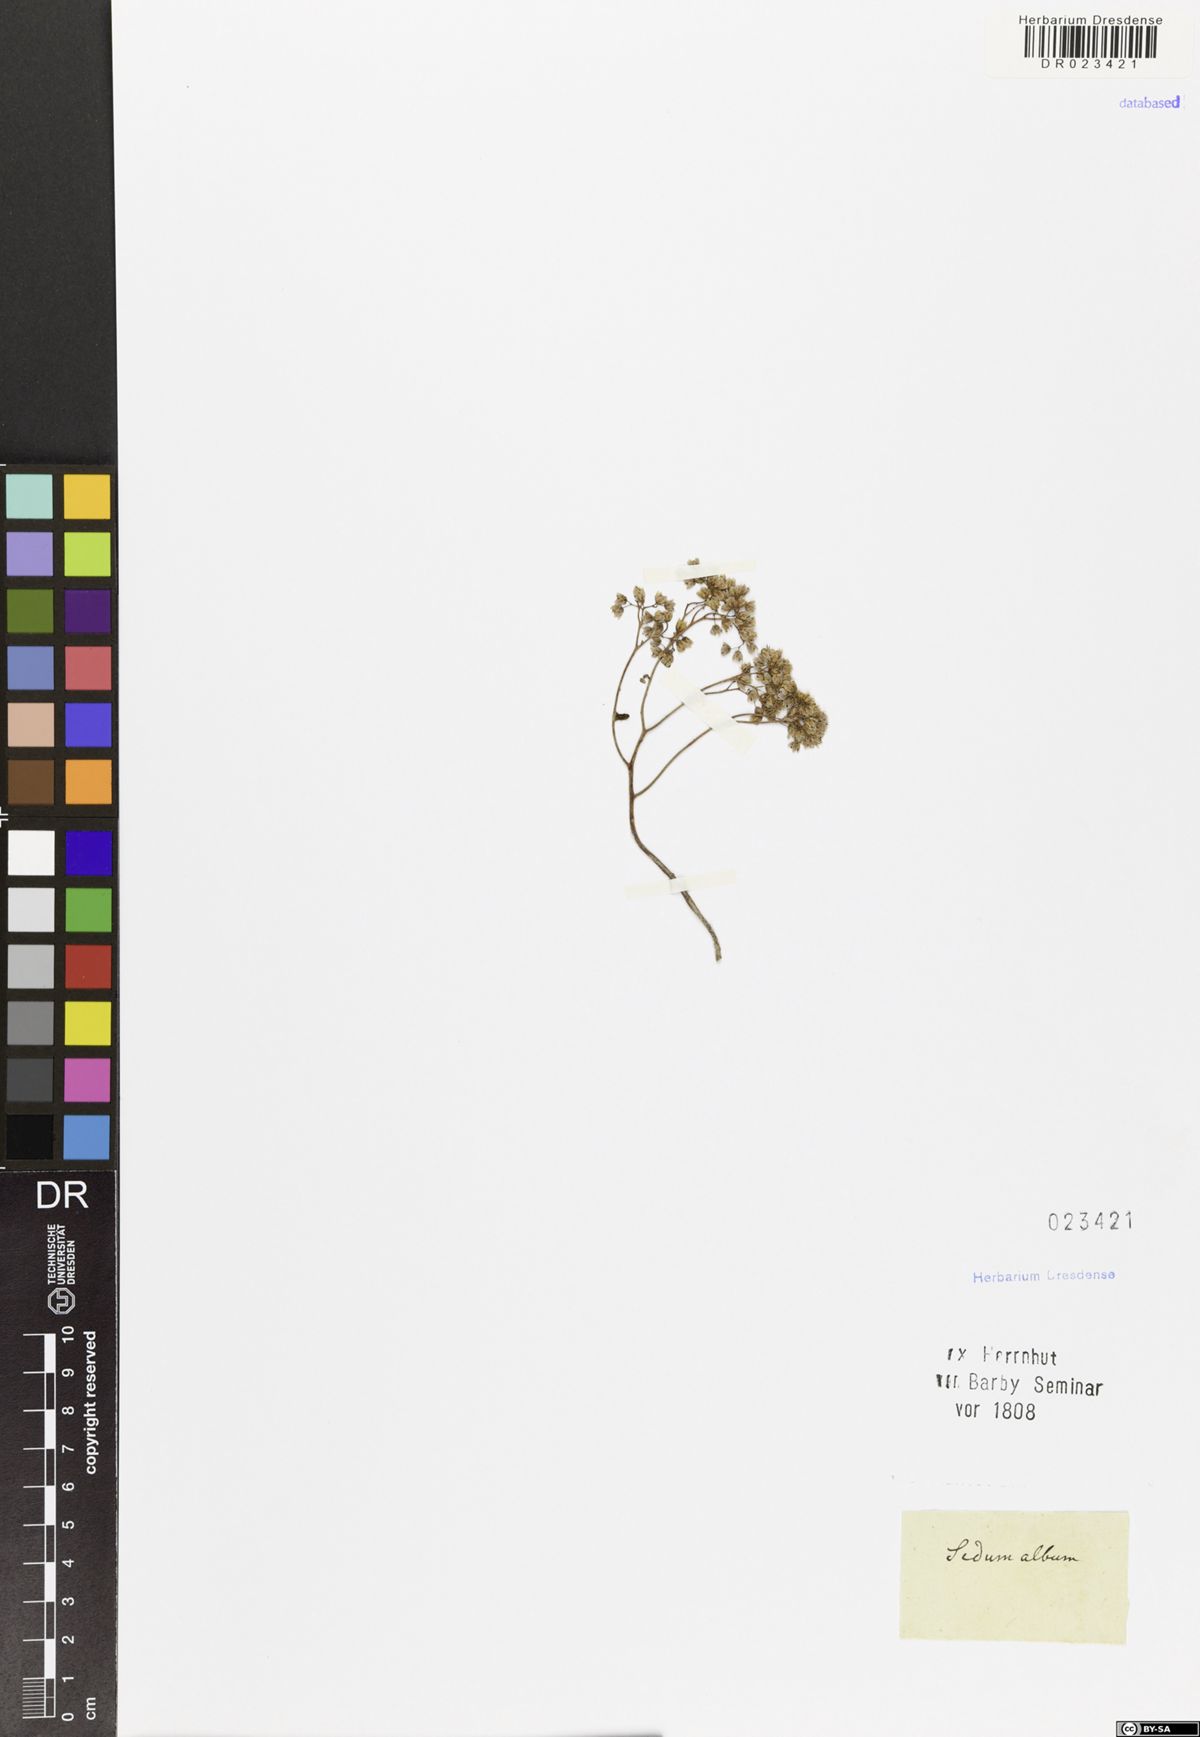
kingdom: Plantae
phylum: Tracheophyta
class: Magnoliopsida
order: Saxifragales
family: Crassulaceae
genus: Sedum
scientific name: Sedum album
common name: White stonecrop
